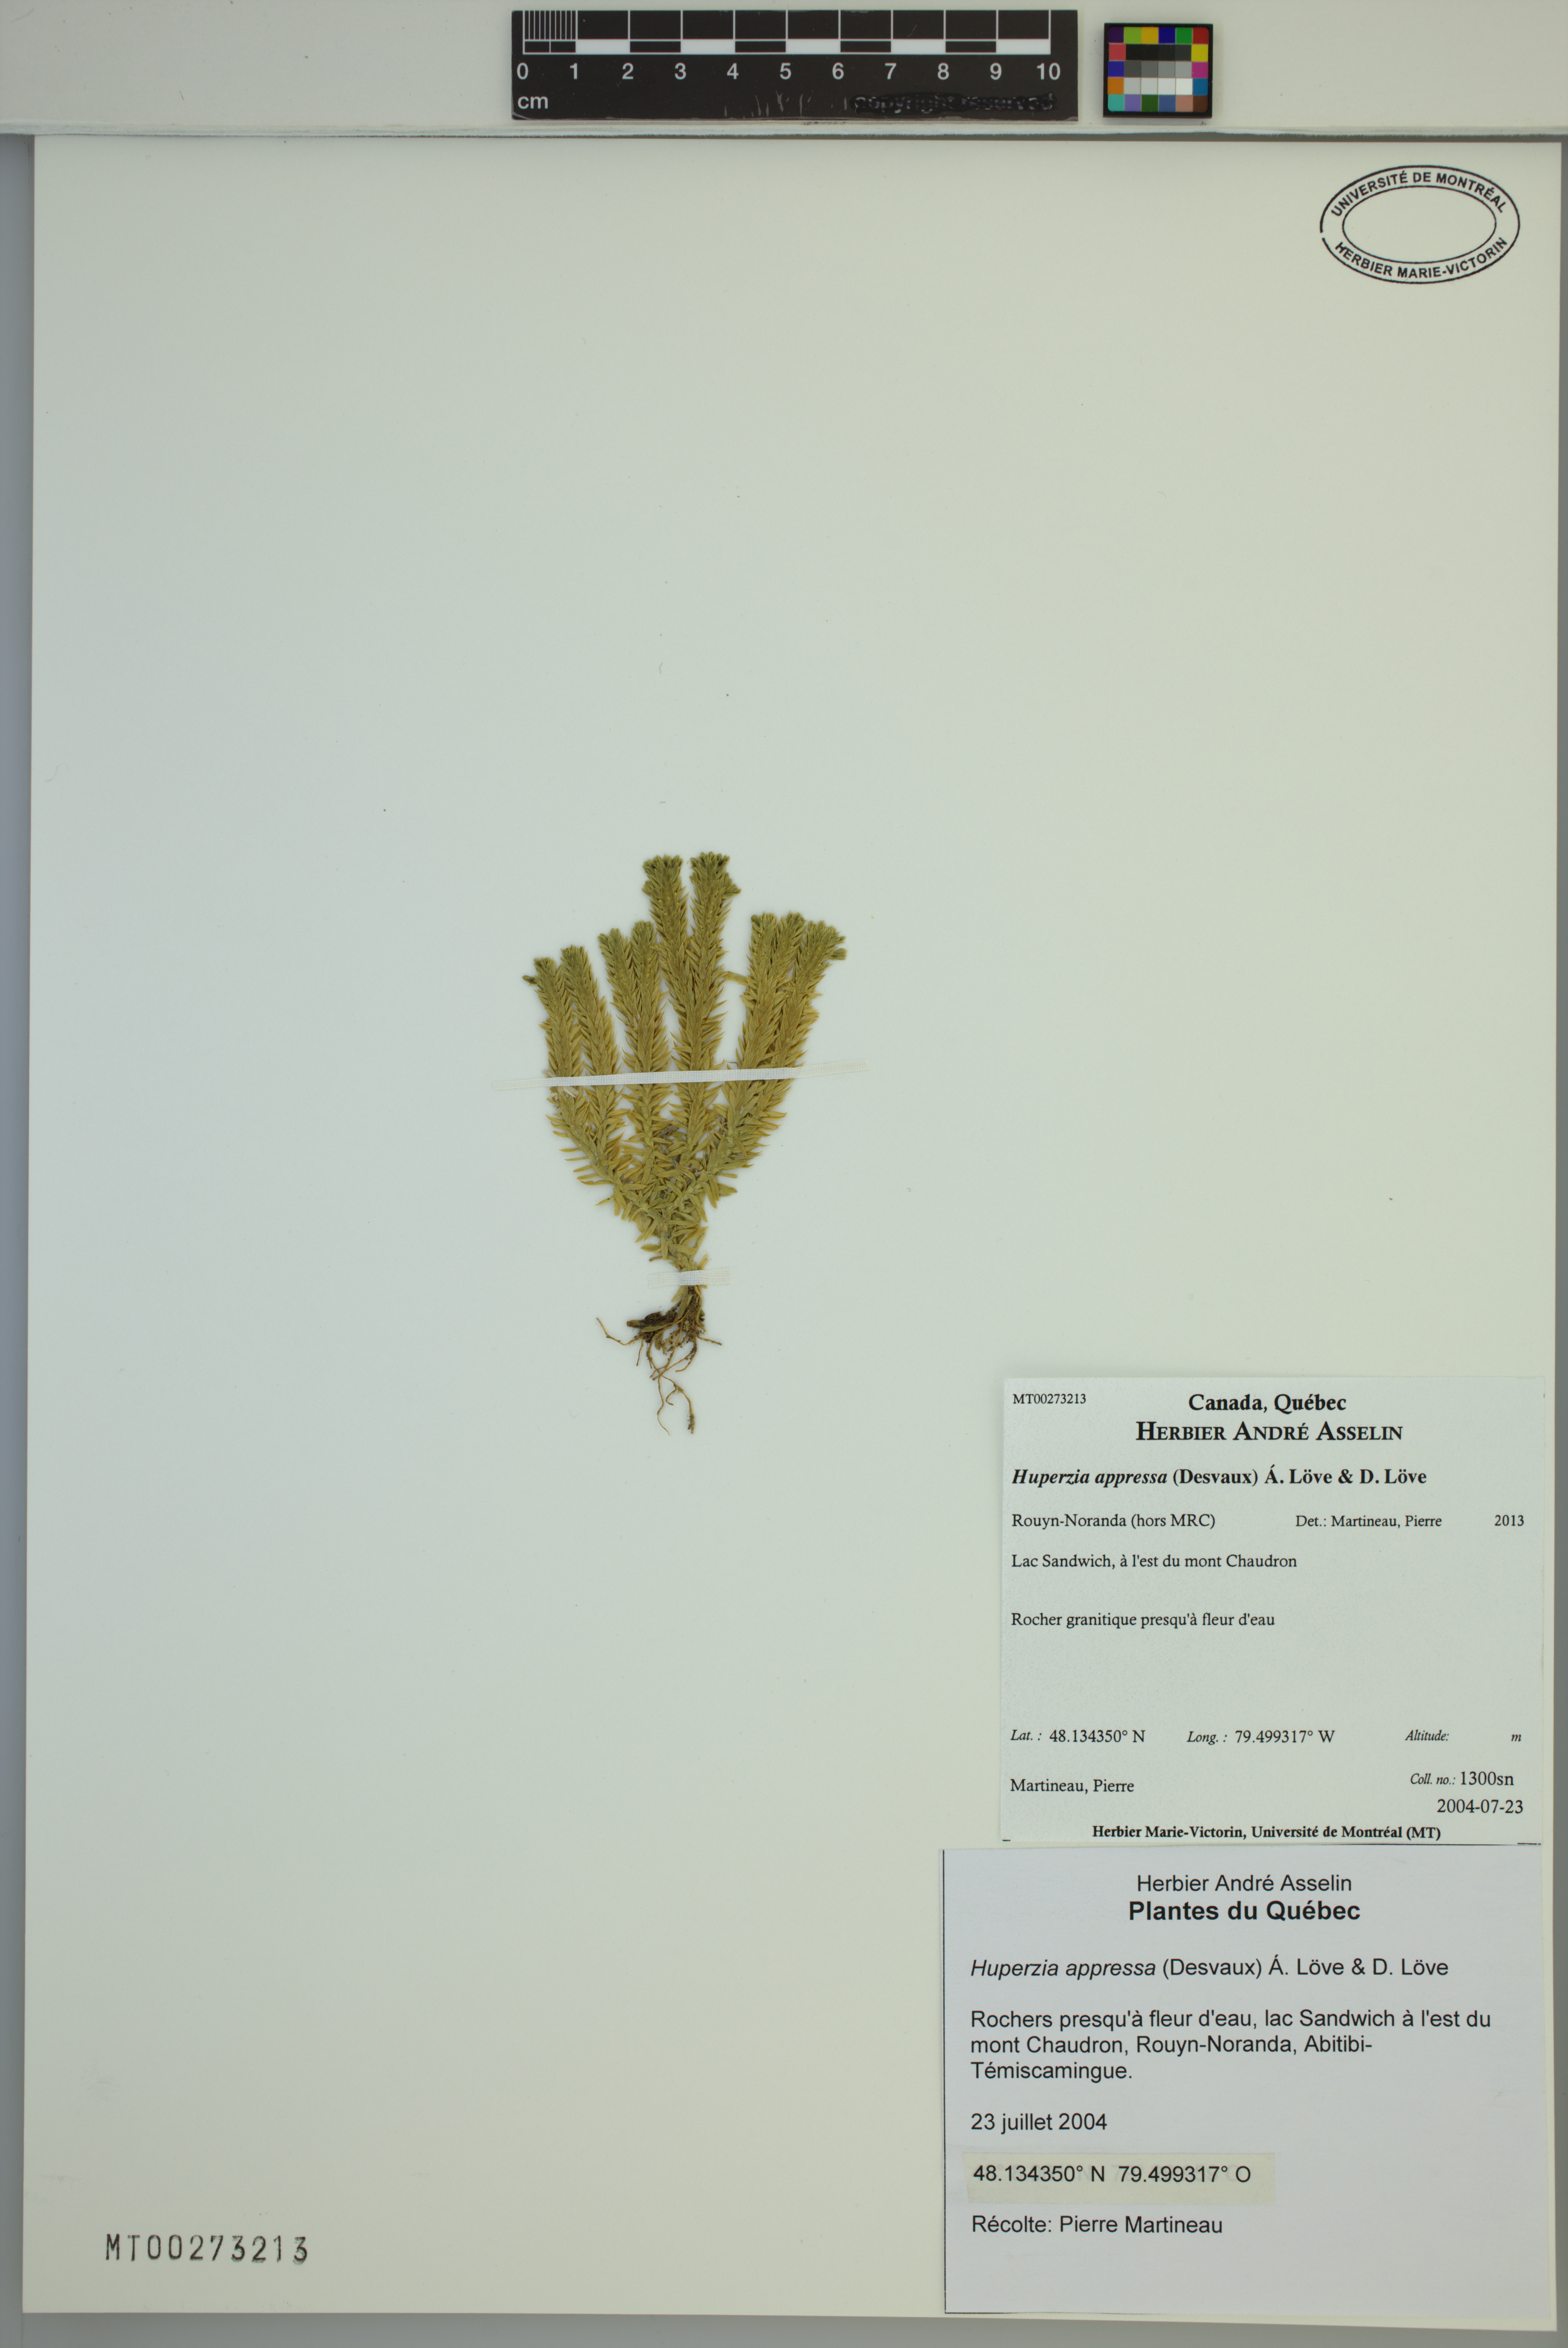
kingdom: Plantae
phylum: Tracheophyta
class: Lycopodiopsida
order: Lycopodiales
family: Lycopodiaceae
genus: Huperzia
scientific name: Huperzia selago
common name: Northern firmoss
